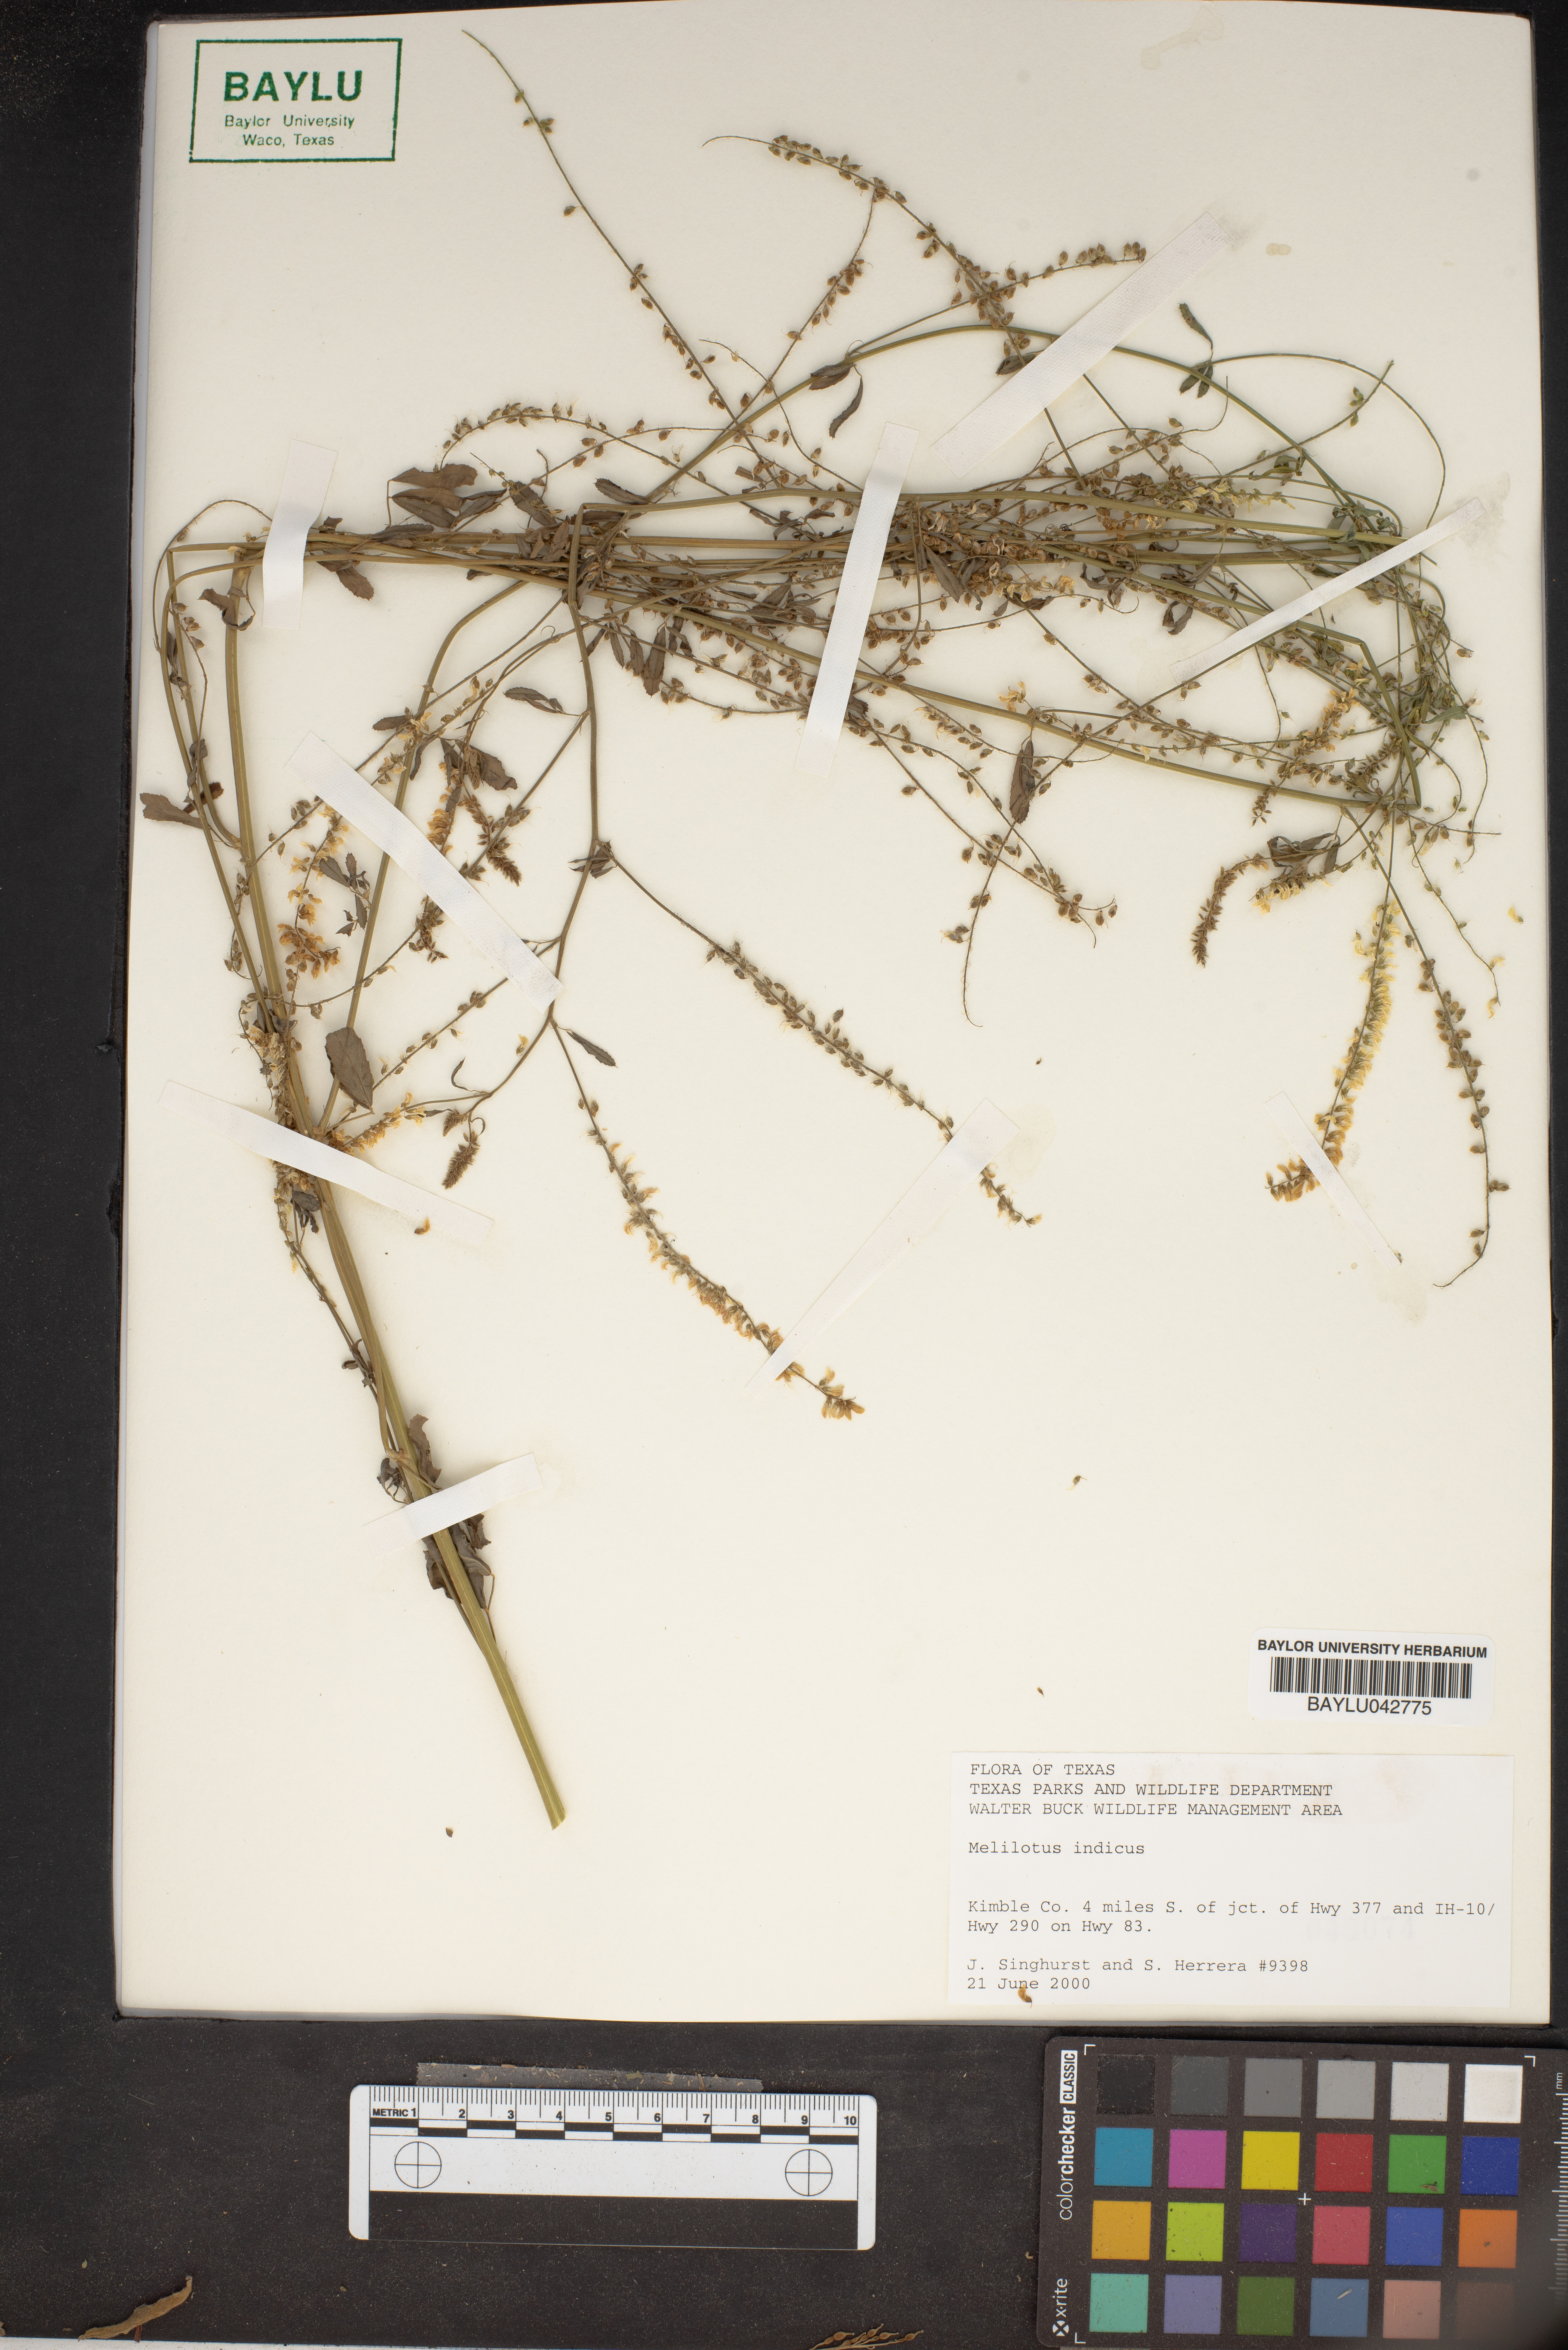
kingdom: Plantae
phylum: Tracheophyta
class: Magnoliopsida
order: Fabales
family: Fabaceae
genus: Melilotus
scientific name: Melilotus indicus
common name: Small melilot
